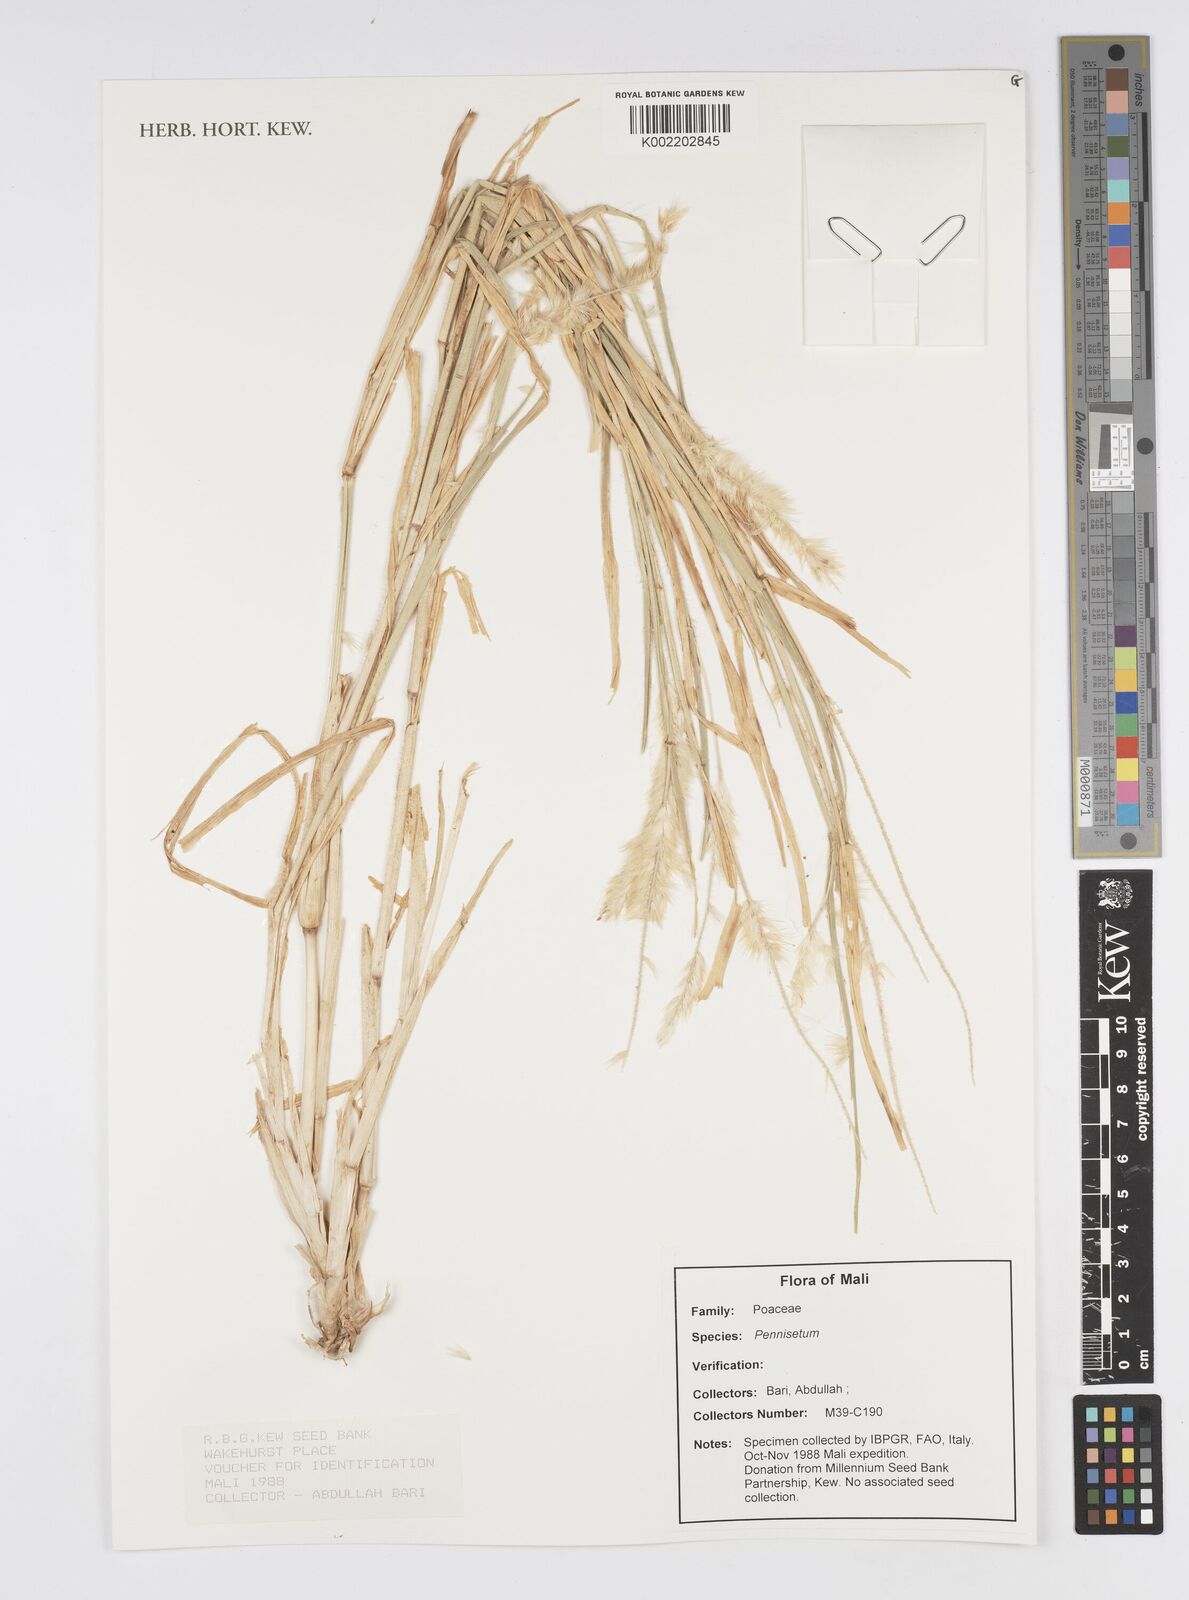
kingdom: Plantae
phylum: Tracheophyta
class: Liliopsida
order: Poales
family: Poaceae
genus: Cenchrus
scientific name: Cenchrus Pennisetum spec
